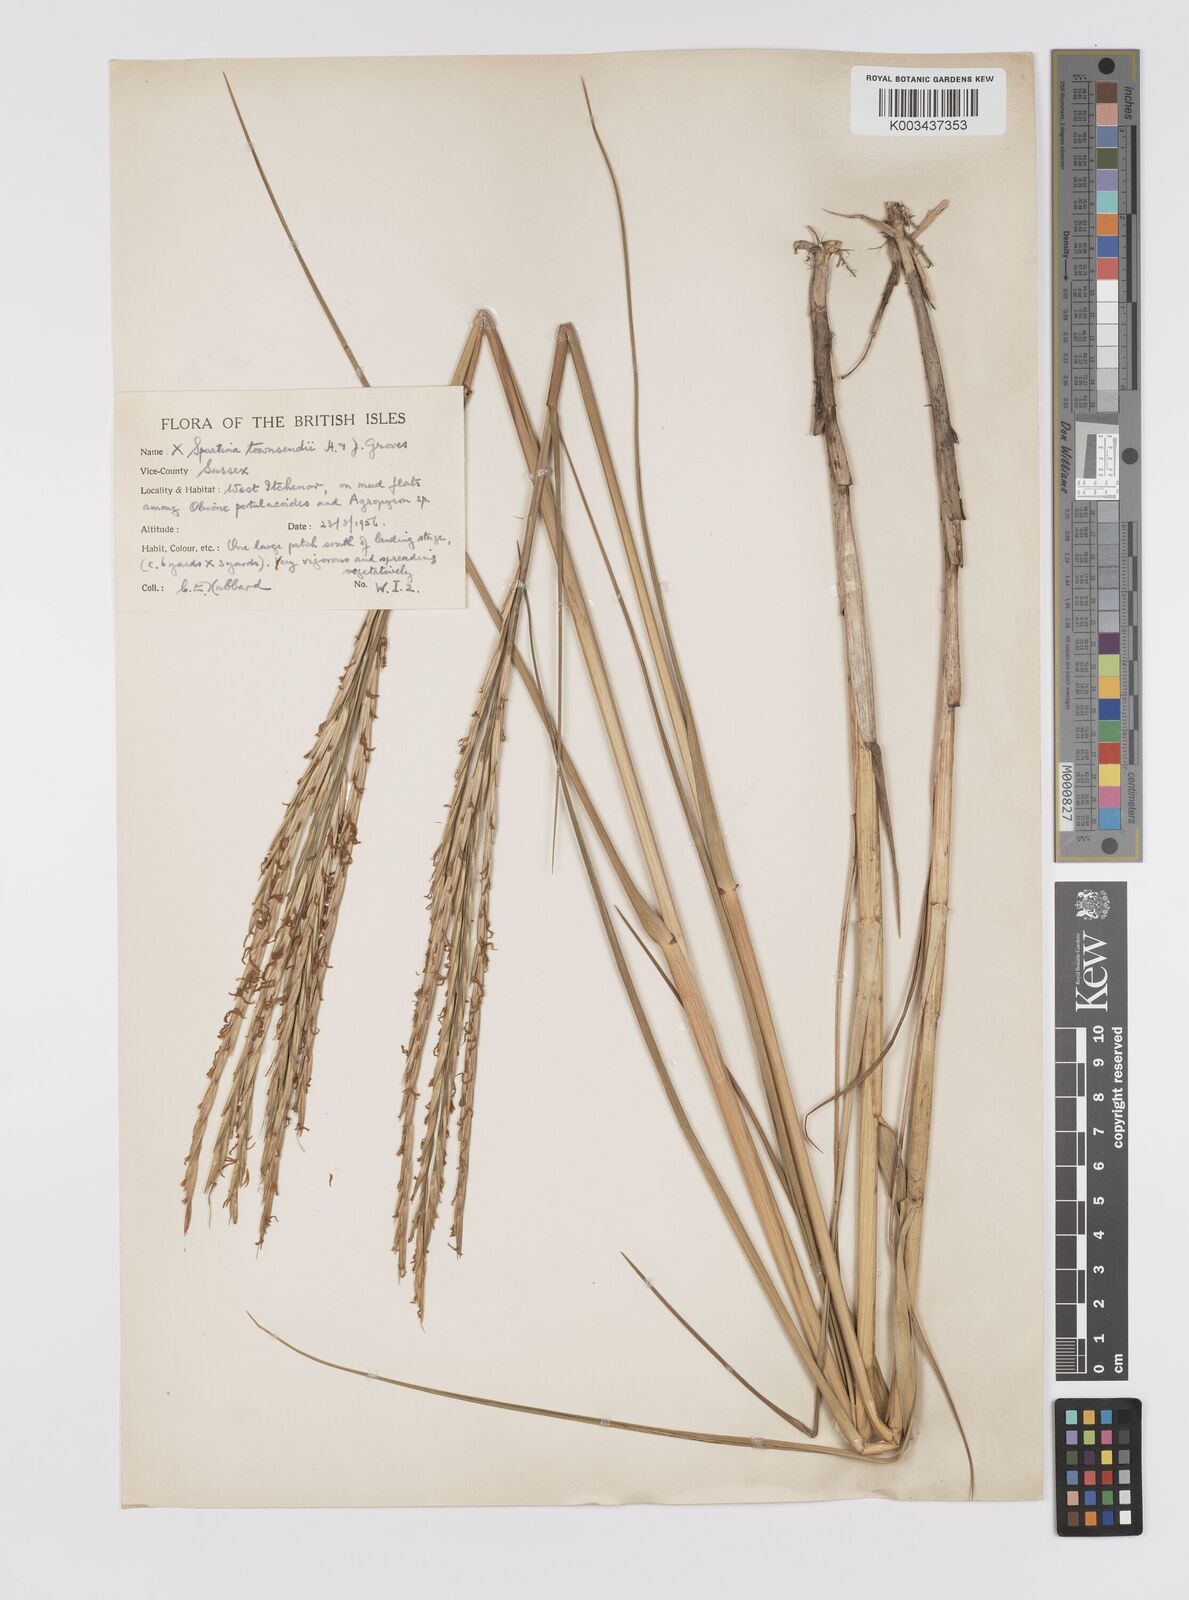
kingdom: Plantae
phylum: Tracheophyta
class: Liliopsida
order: Poales
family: Poaceae
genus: Sporobolus
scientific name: Sporobolus townsendii
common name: Townsend's cordgrass
